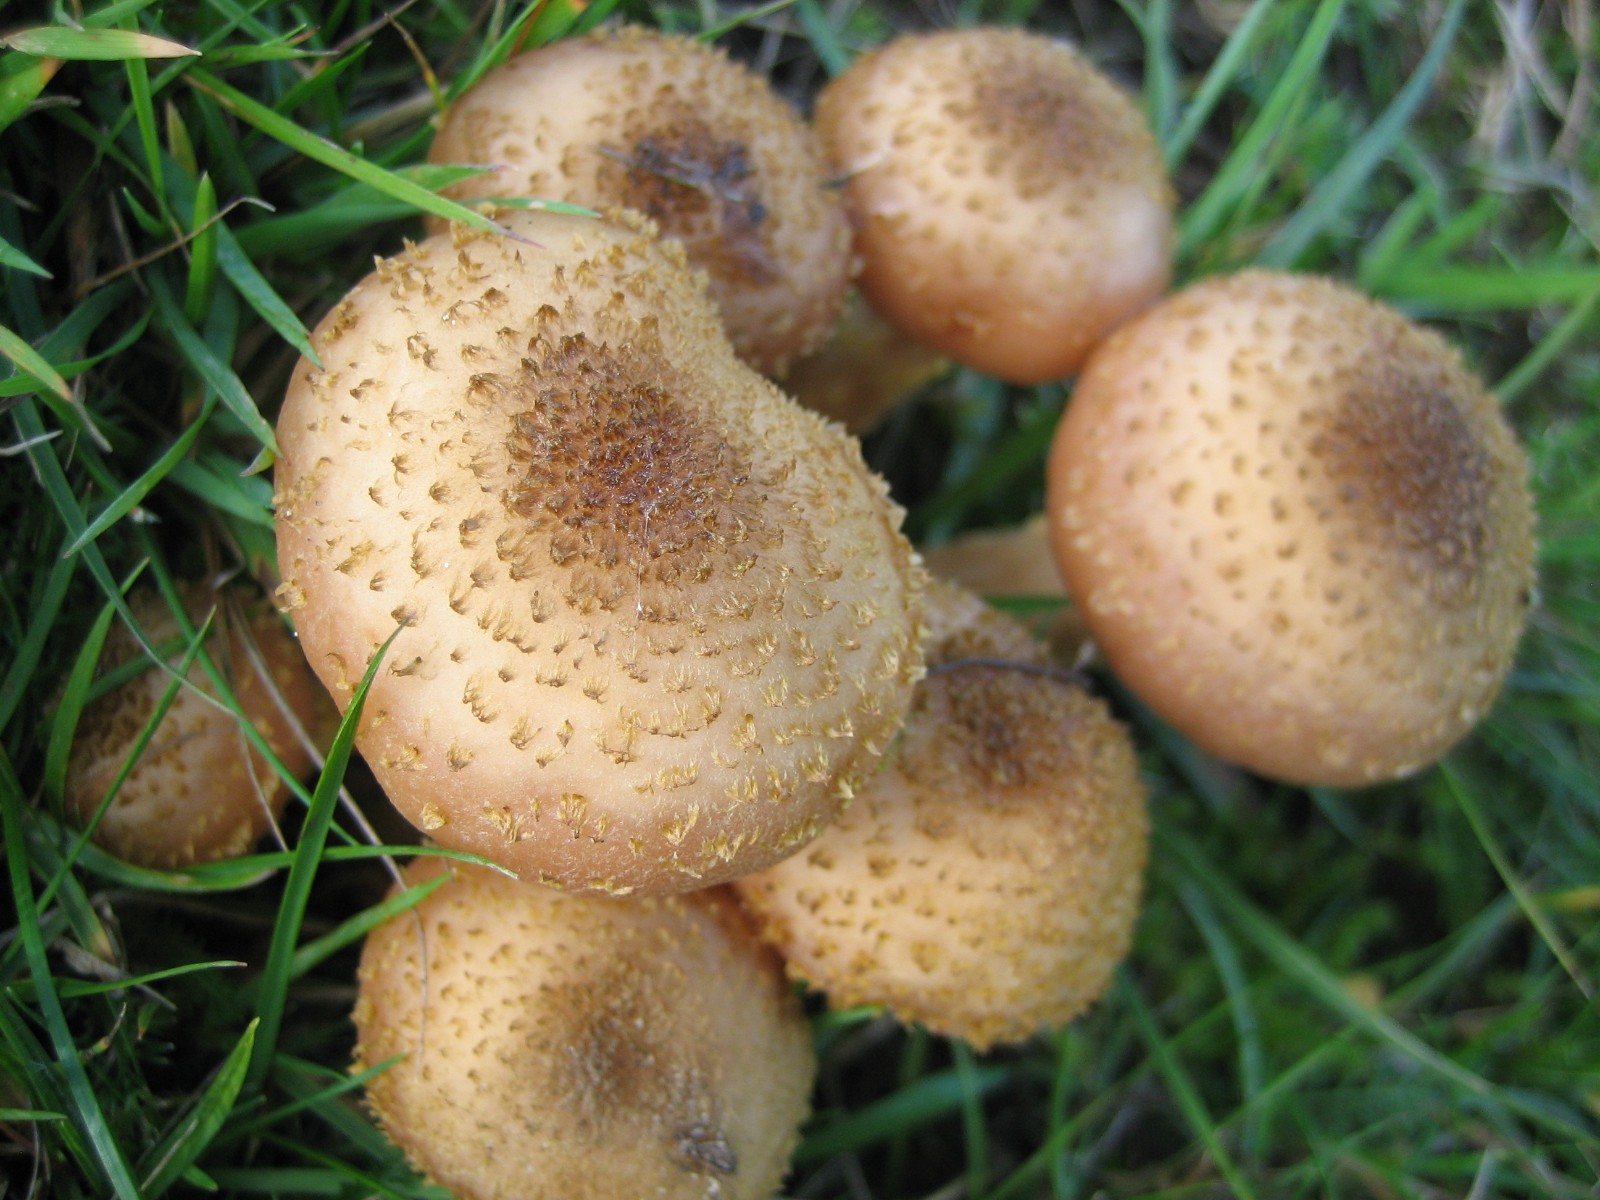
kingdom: Fungi
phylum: Basidiomycota
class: Agaricomycetes
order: Agaricales
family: Physalacriaceae
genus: Armillaria
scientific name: Armillaria lutea
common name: køllestokket honningsvamp
